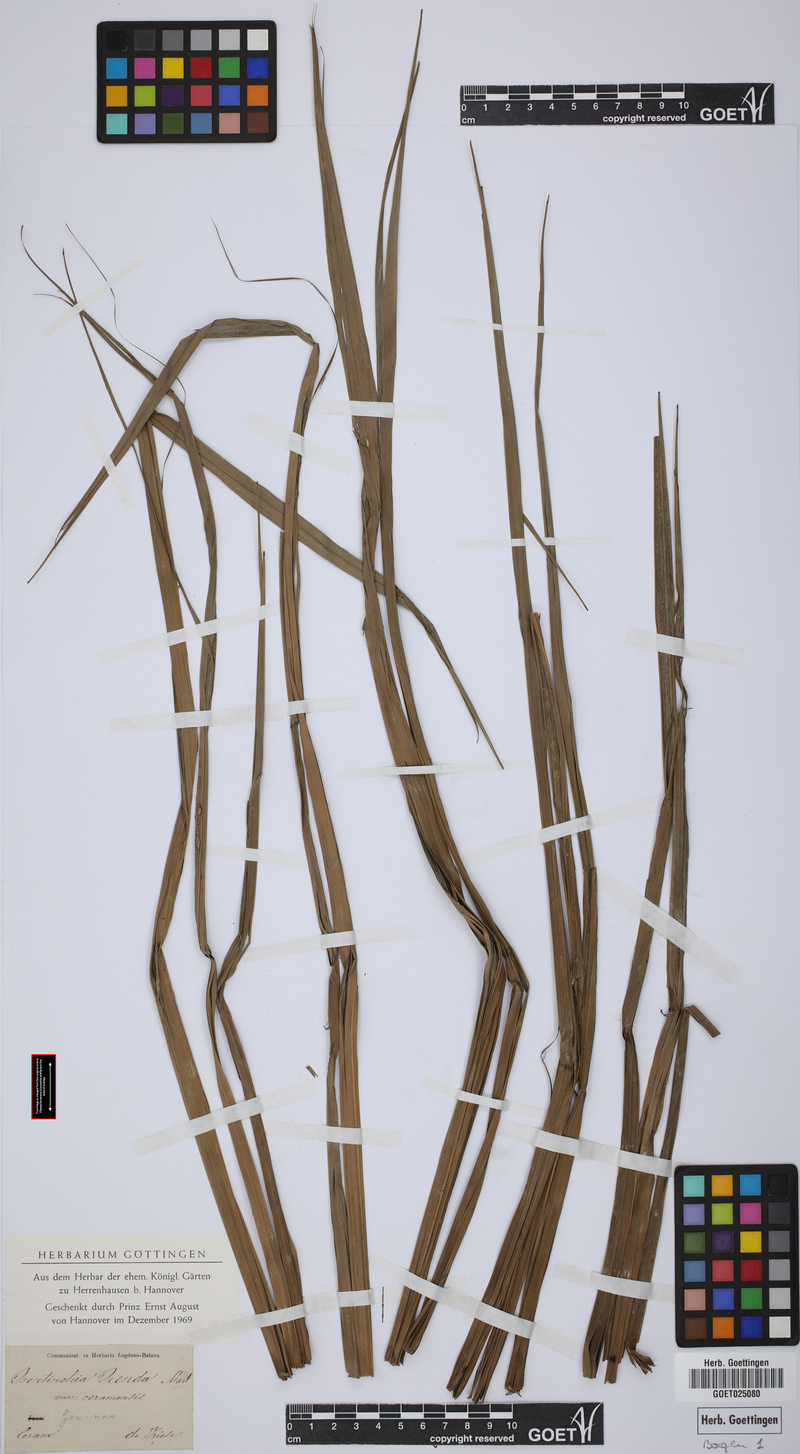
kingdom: Plantae
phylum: Tracheophyta
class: Liliopsida
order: Arecales
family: Arecaceae
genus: Cyrtostachys
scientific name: Cyrtostachys renda
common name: Lipstick palm
